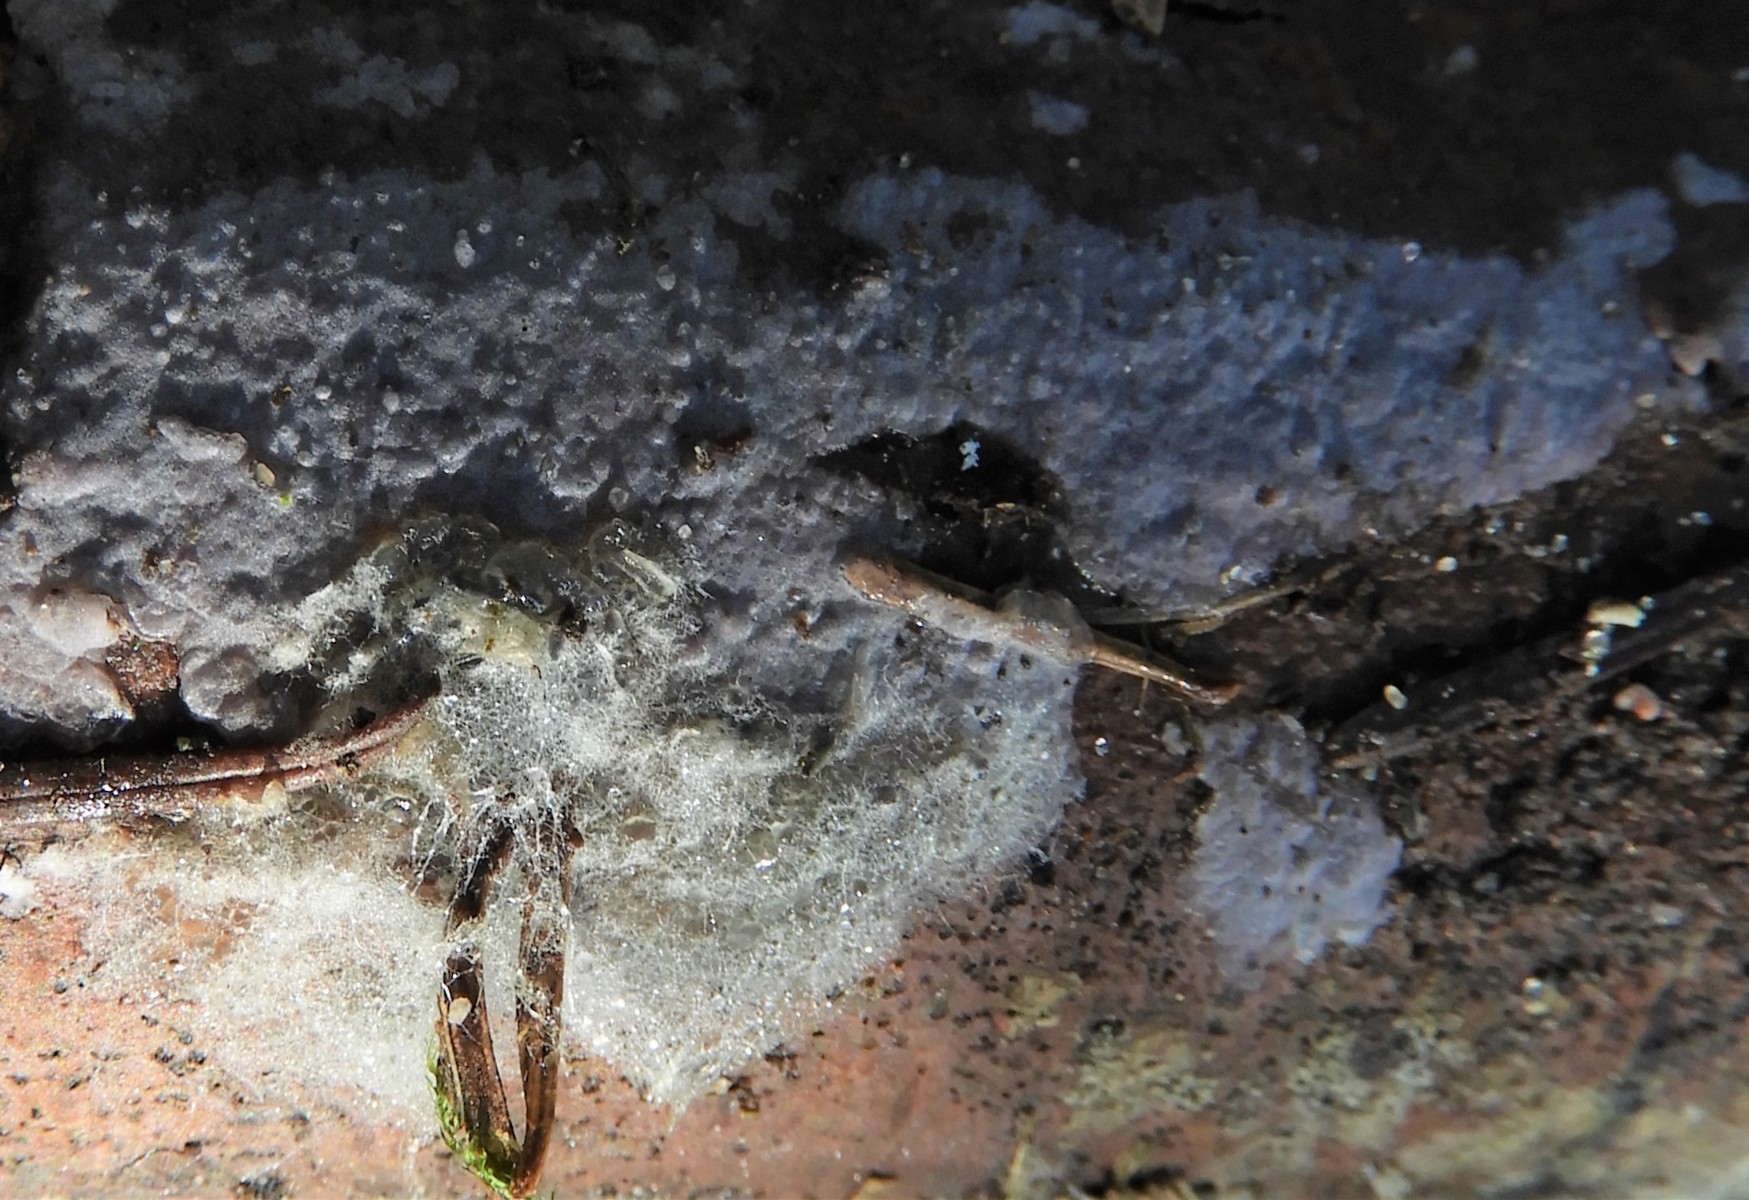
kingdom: Fungi
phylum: Basidiomycota
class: Agaricomycetes
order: Sebacinales
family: Sebacinaceae
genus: Sebacina
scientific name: Sebacina grisea
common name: blågrå bævrehinde
